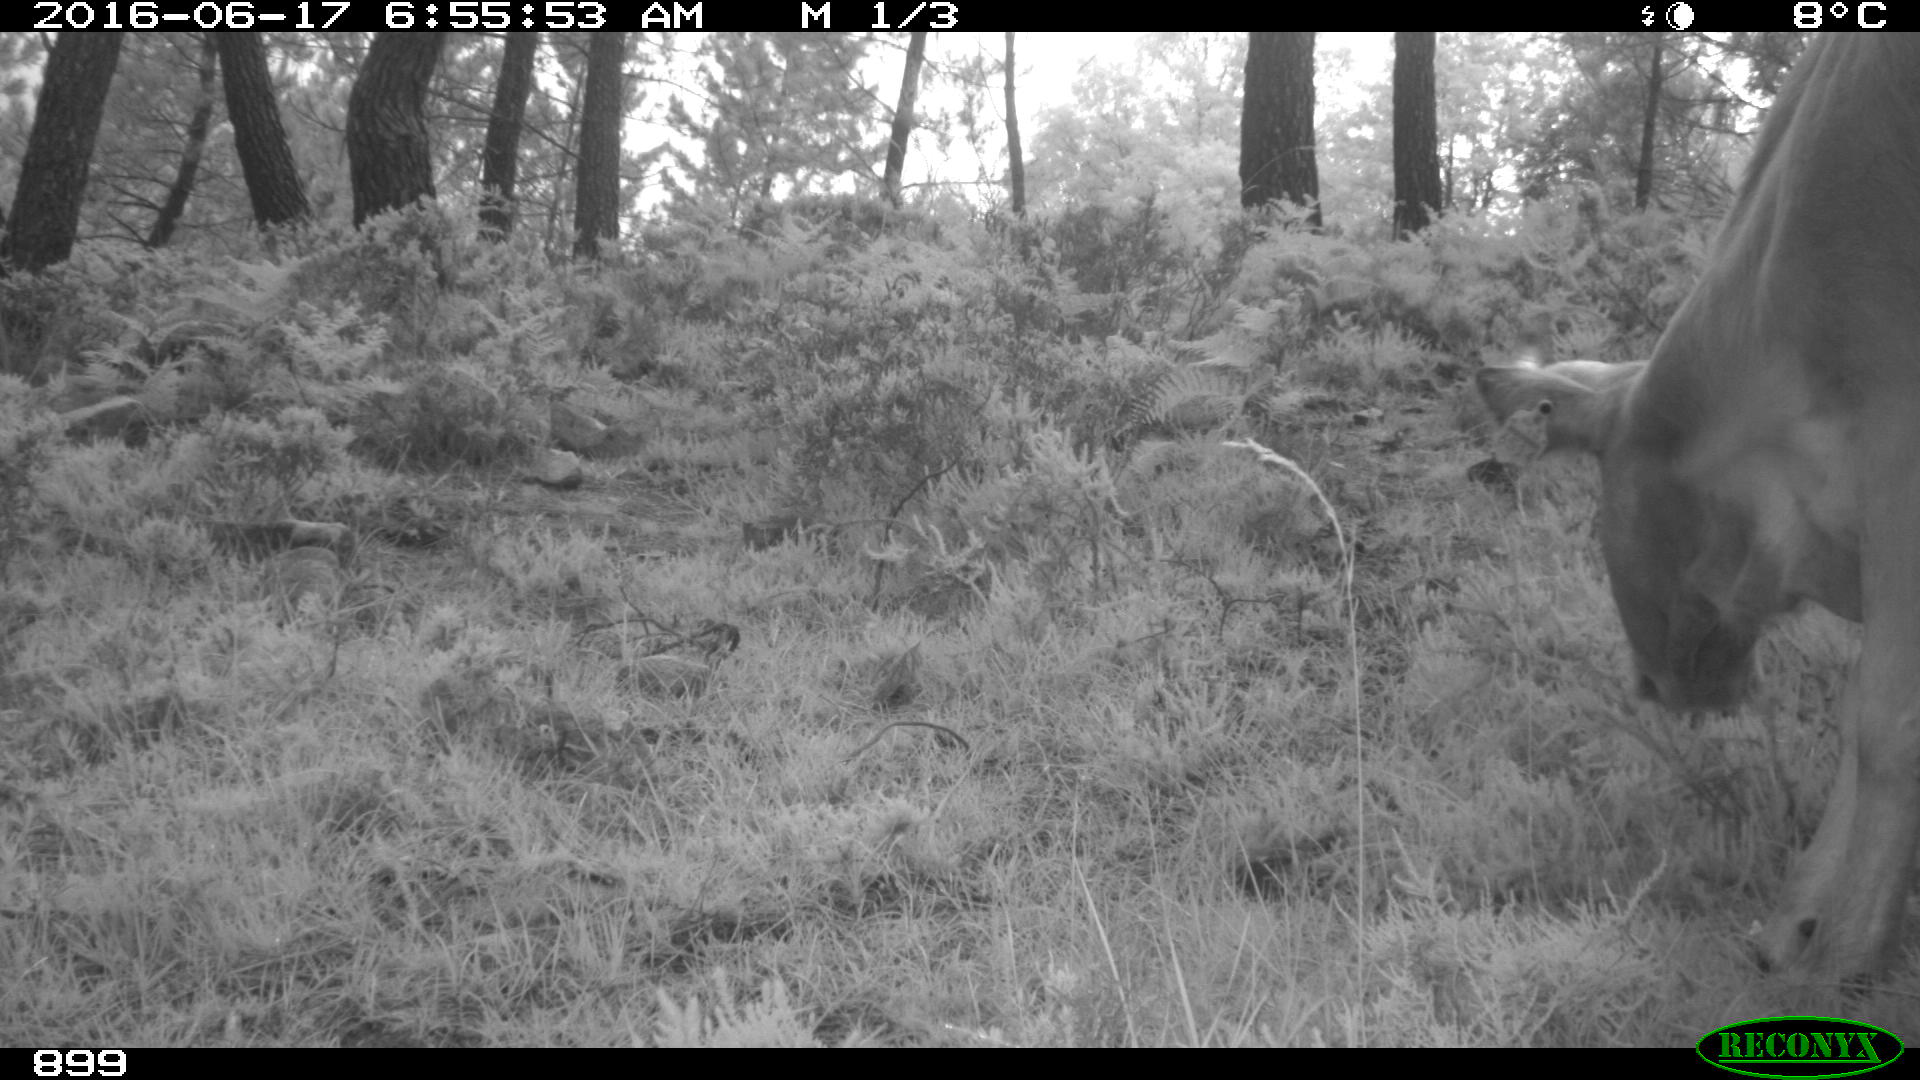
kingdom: Animalia
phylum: Chordata
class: Mammalia
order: Artiodactyla
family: Bovidae
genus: Bos
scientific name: Bos taurus
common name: Domesticated cattle
